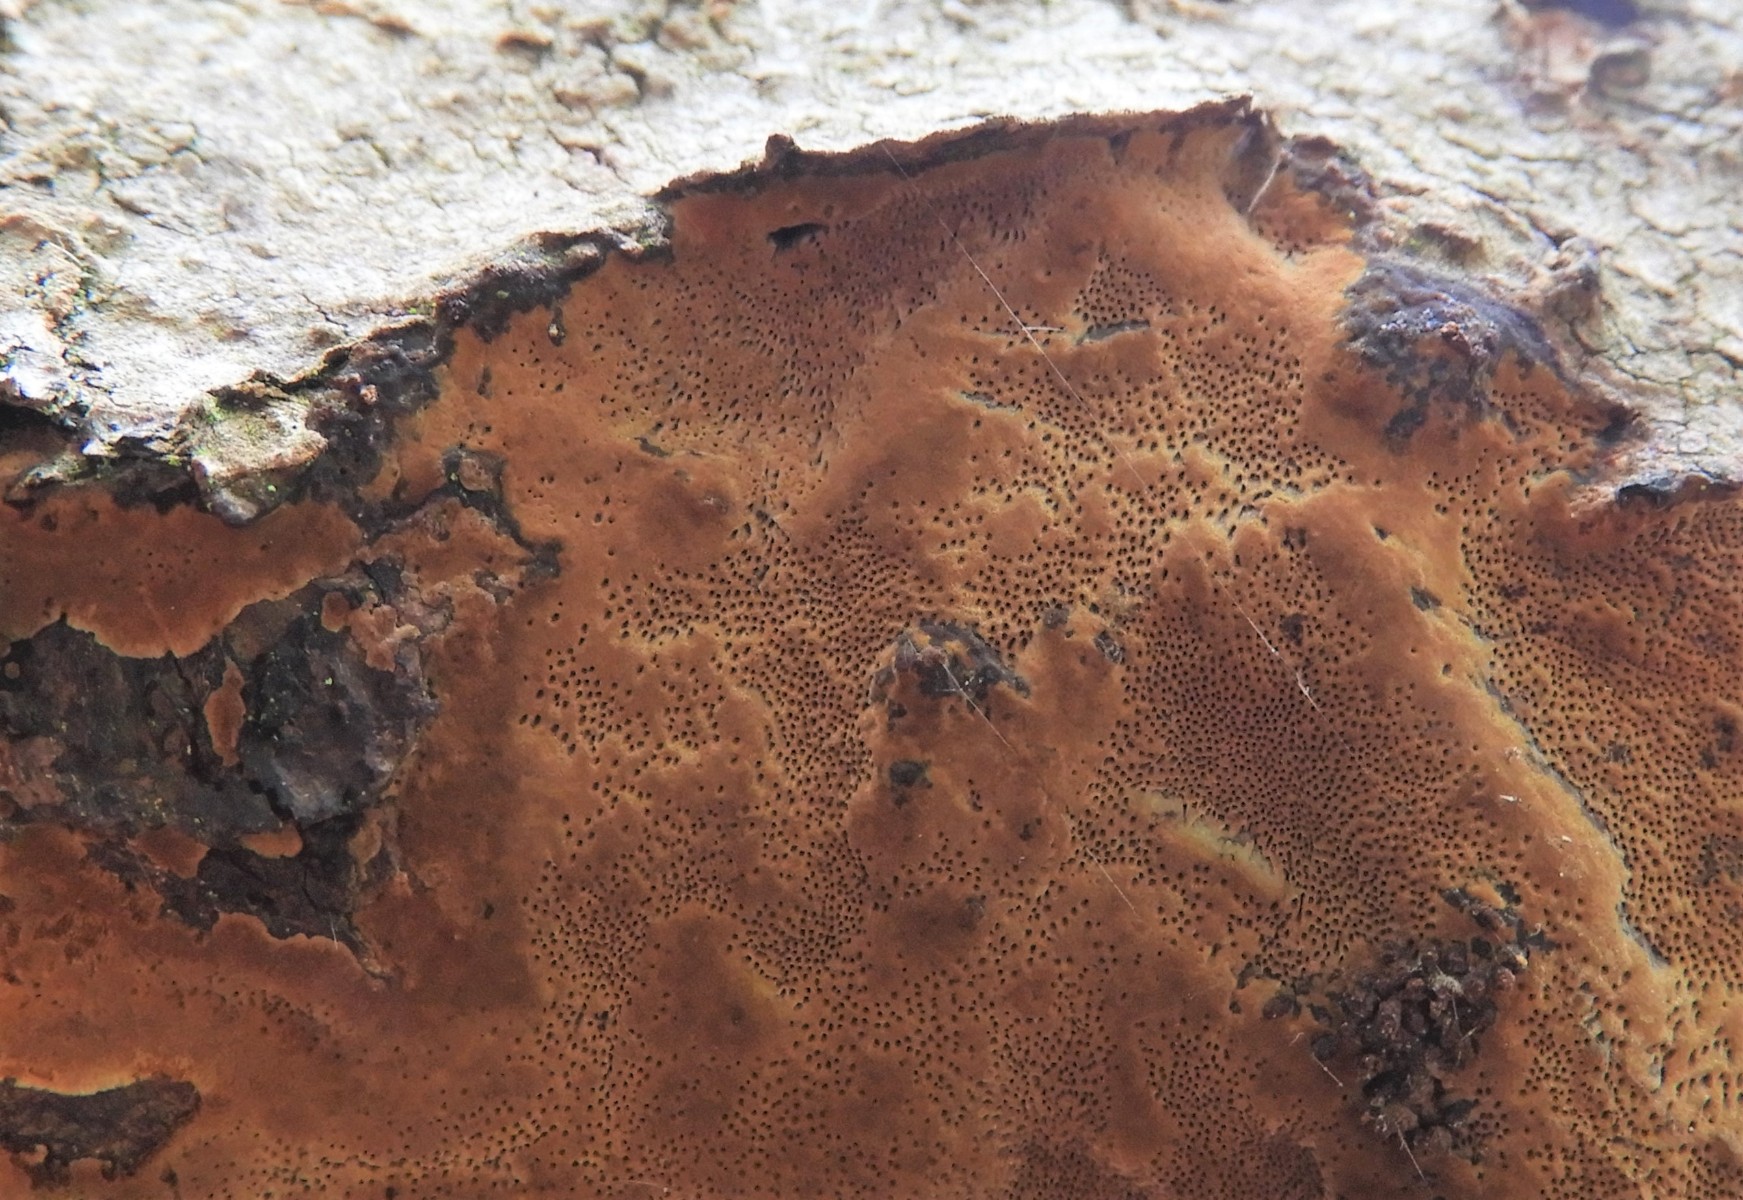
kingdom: Fungi
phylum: Basidiomycota
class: Agaricomycetes
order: Hymenochaetales
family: Hymenochaetaceae
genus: Fuscoporia
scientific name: Fuscoporia
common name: Ildporesvamp
